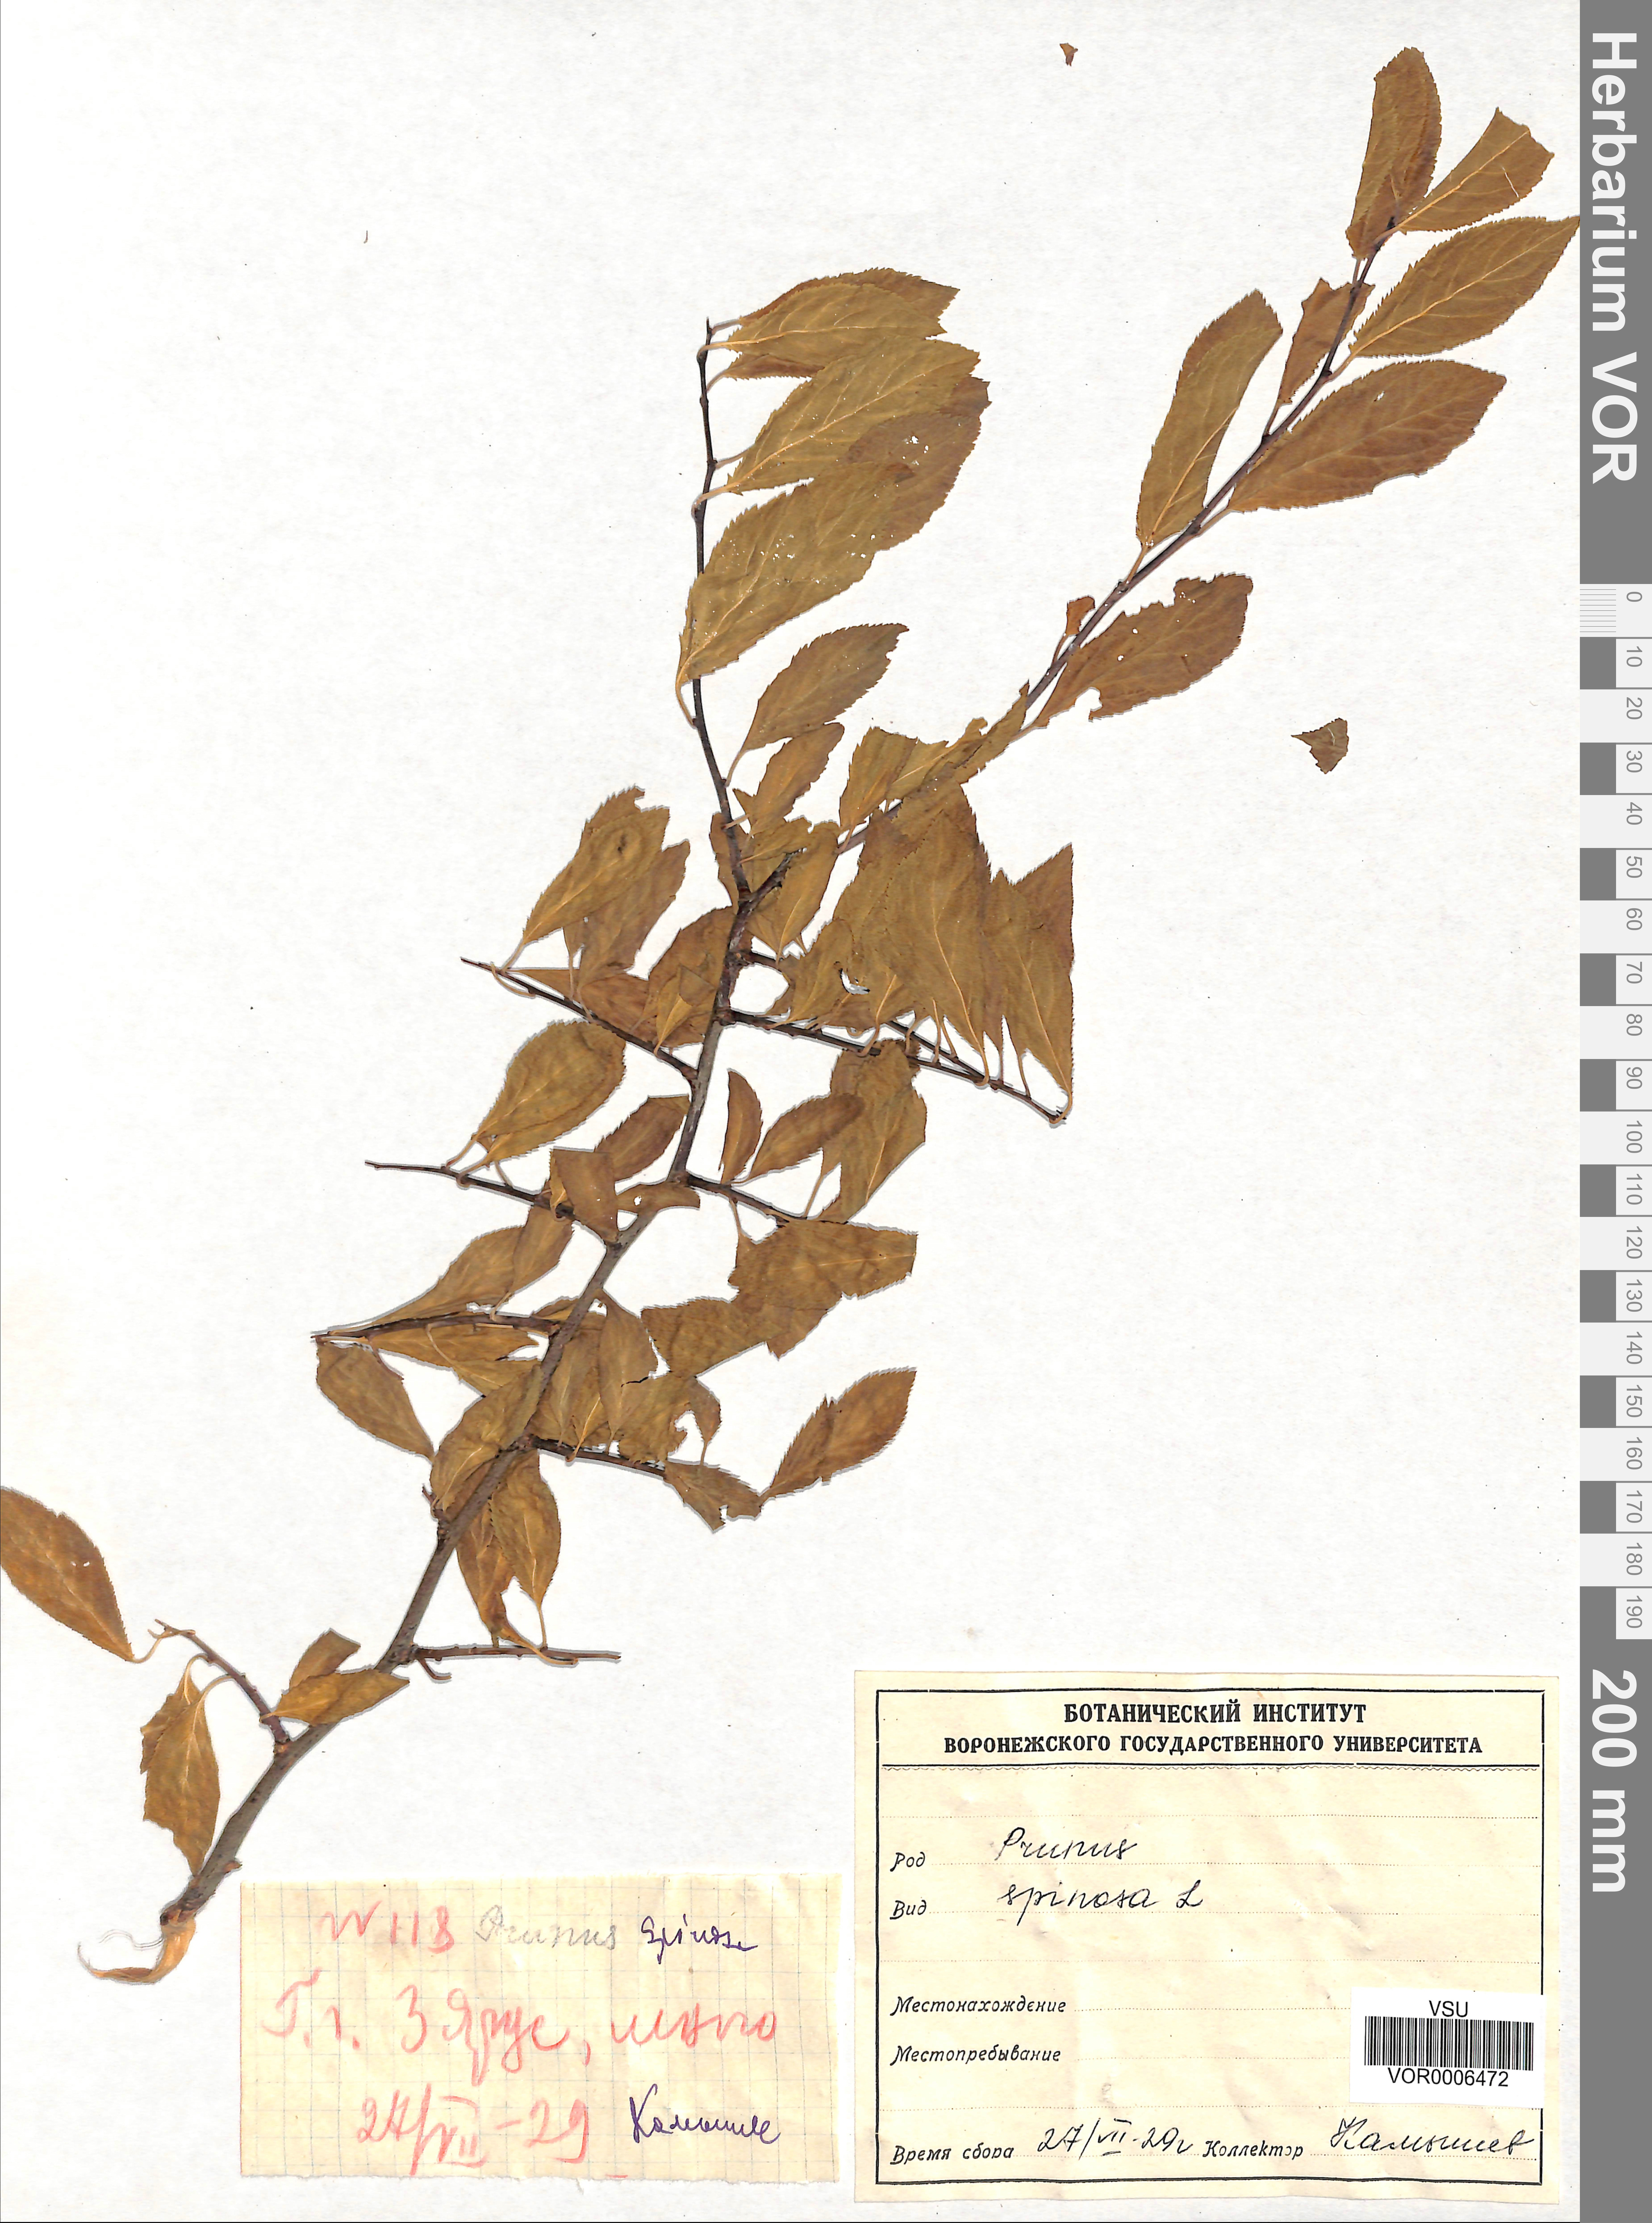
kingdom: Plantae
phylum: Tracheophyta
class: Magnoliopsida
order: Rosales
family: Rosaceae
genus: Prunus
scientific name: Prunus spinosa
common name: Blackthorn
